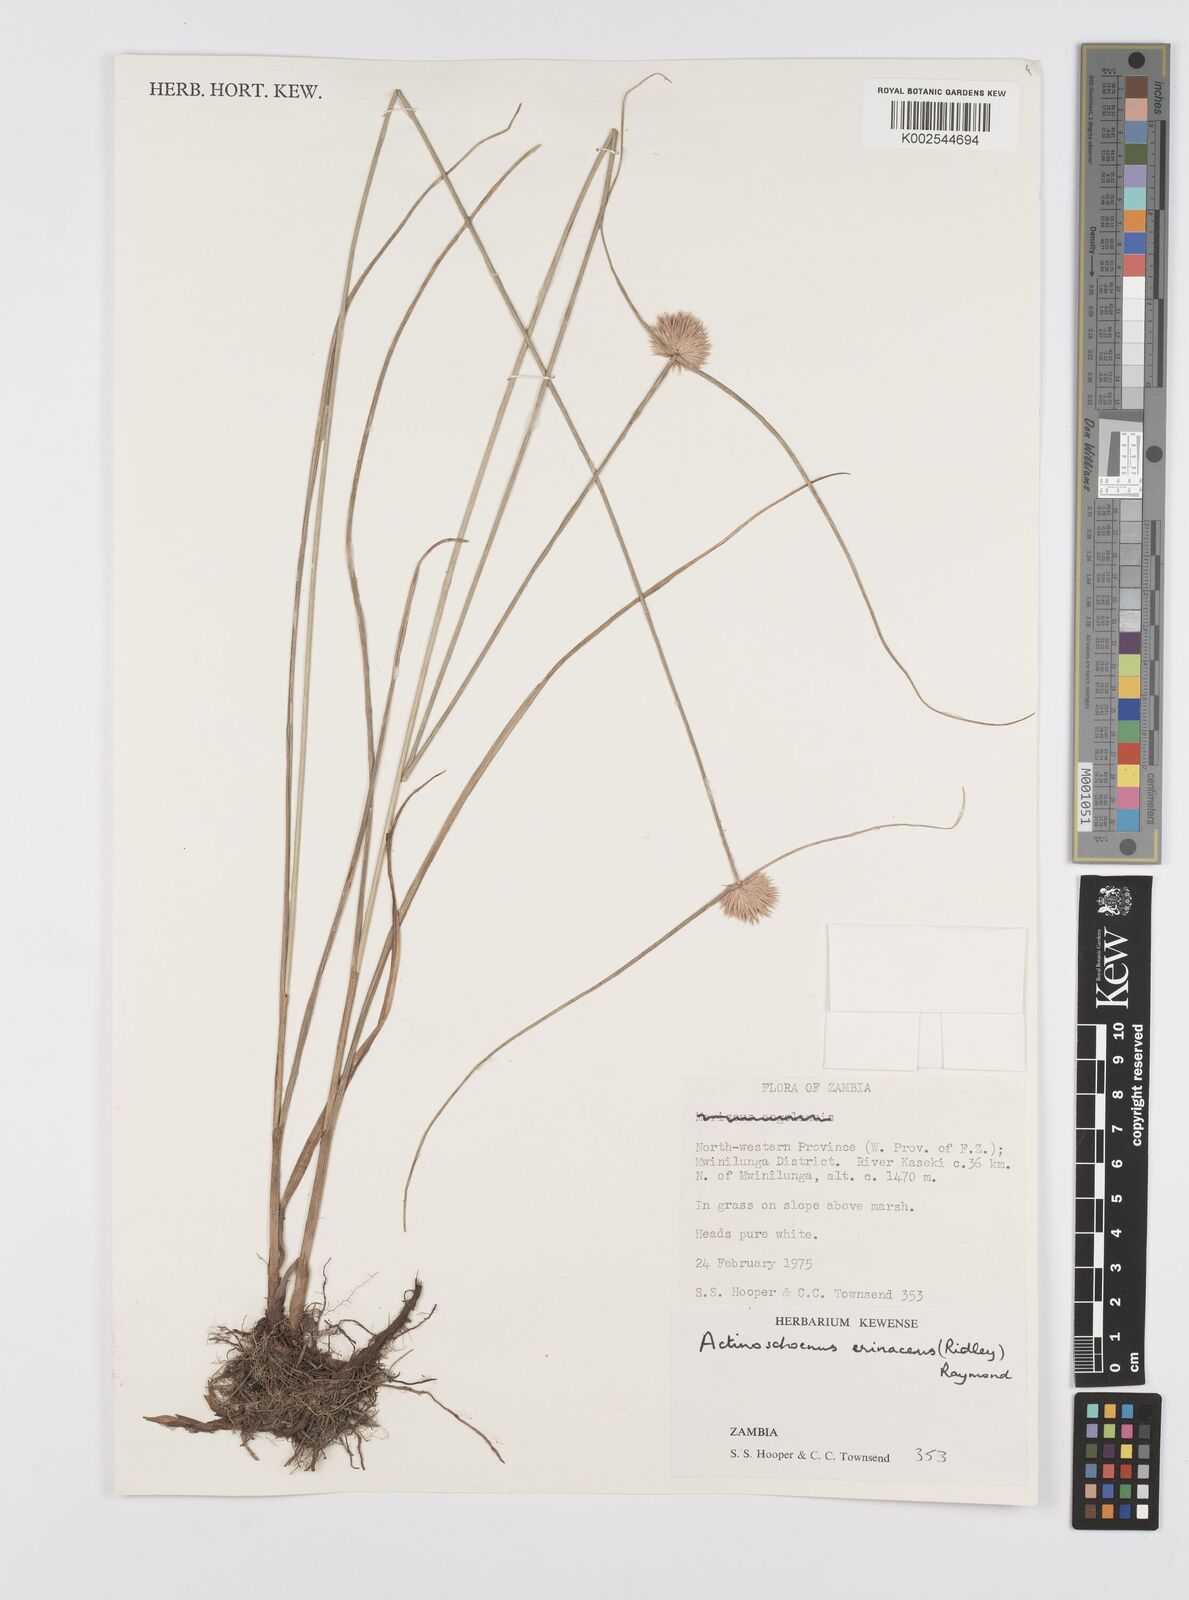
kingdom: Plantae
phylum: Tracheophyta
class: Liliopsida
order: Poales
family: Cyperaceae
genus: Cyperus
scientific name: Cyperus erinaceus
